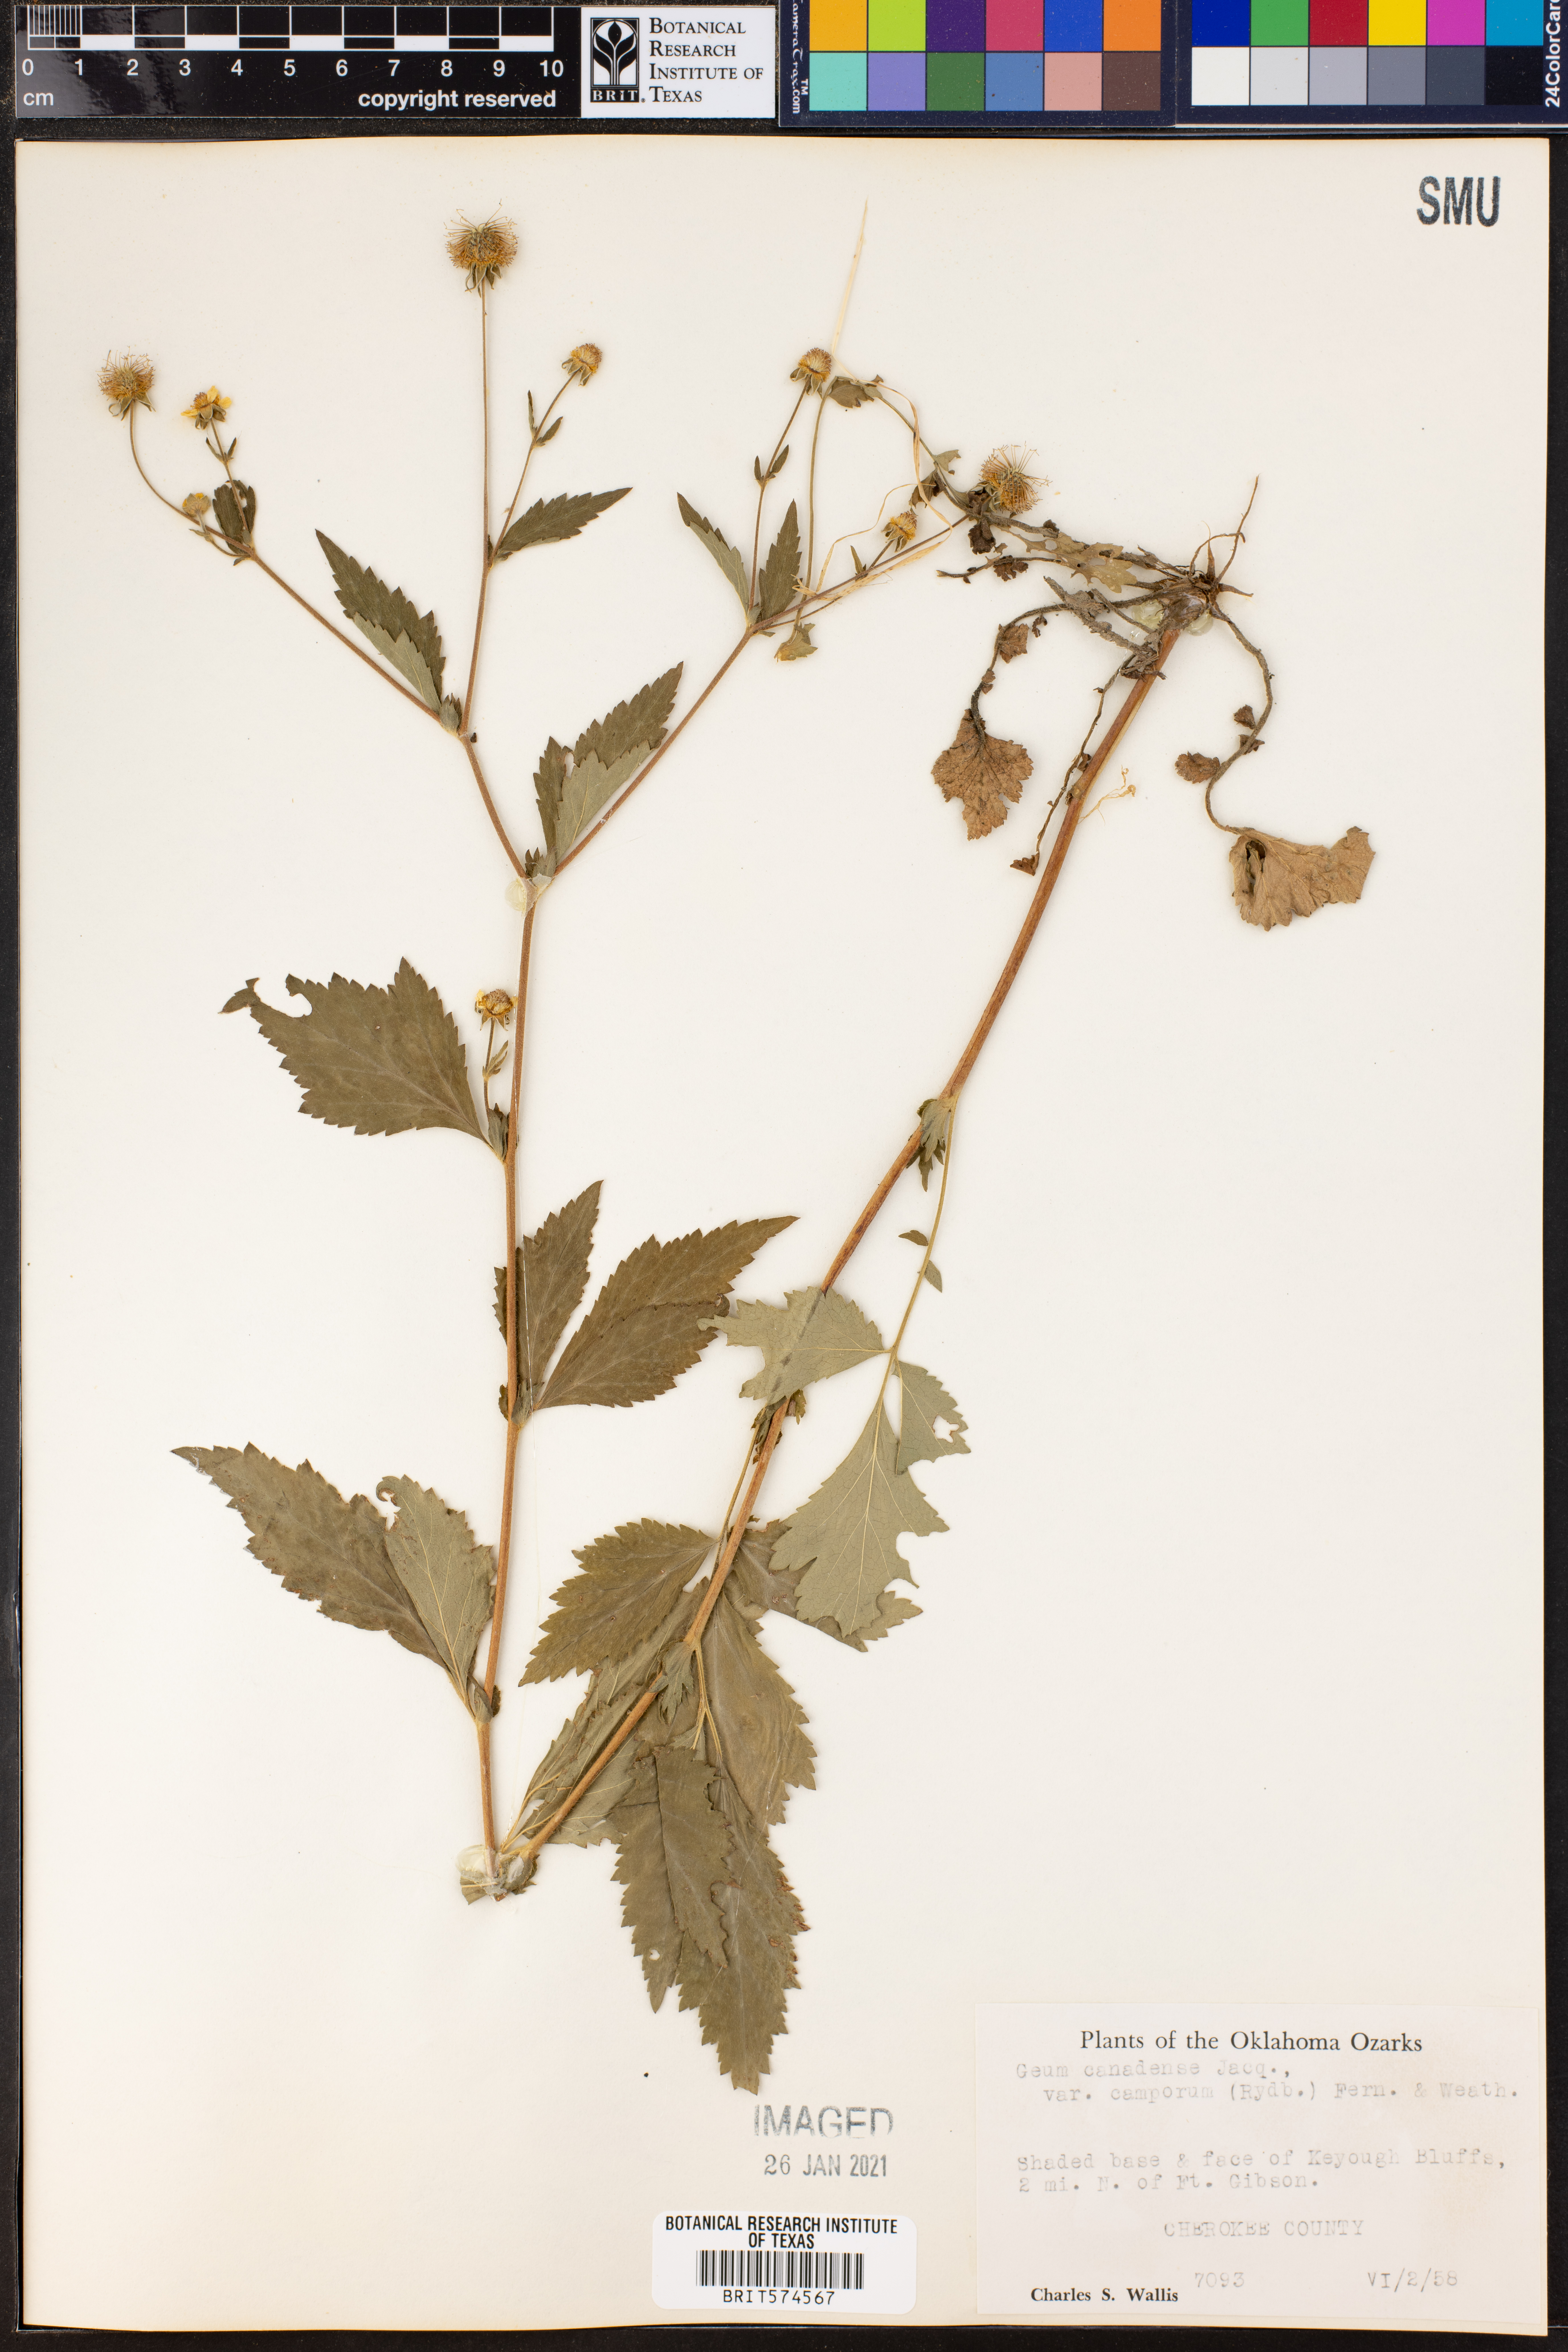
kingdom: Plantae
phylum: Tracheophyta
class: Magnoliopsida
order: Rosales
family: Rosaceae
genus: Geum
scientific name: Geum canadense
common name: White avens
